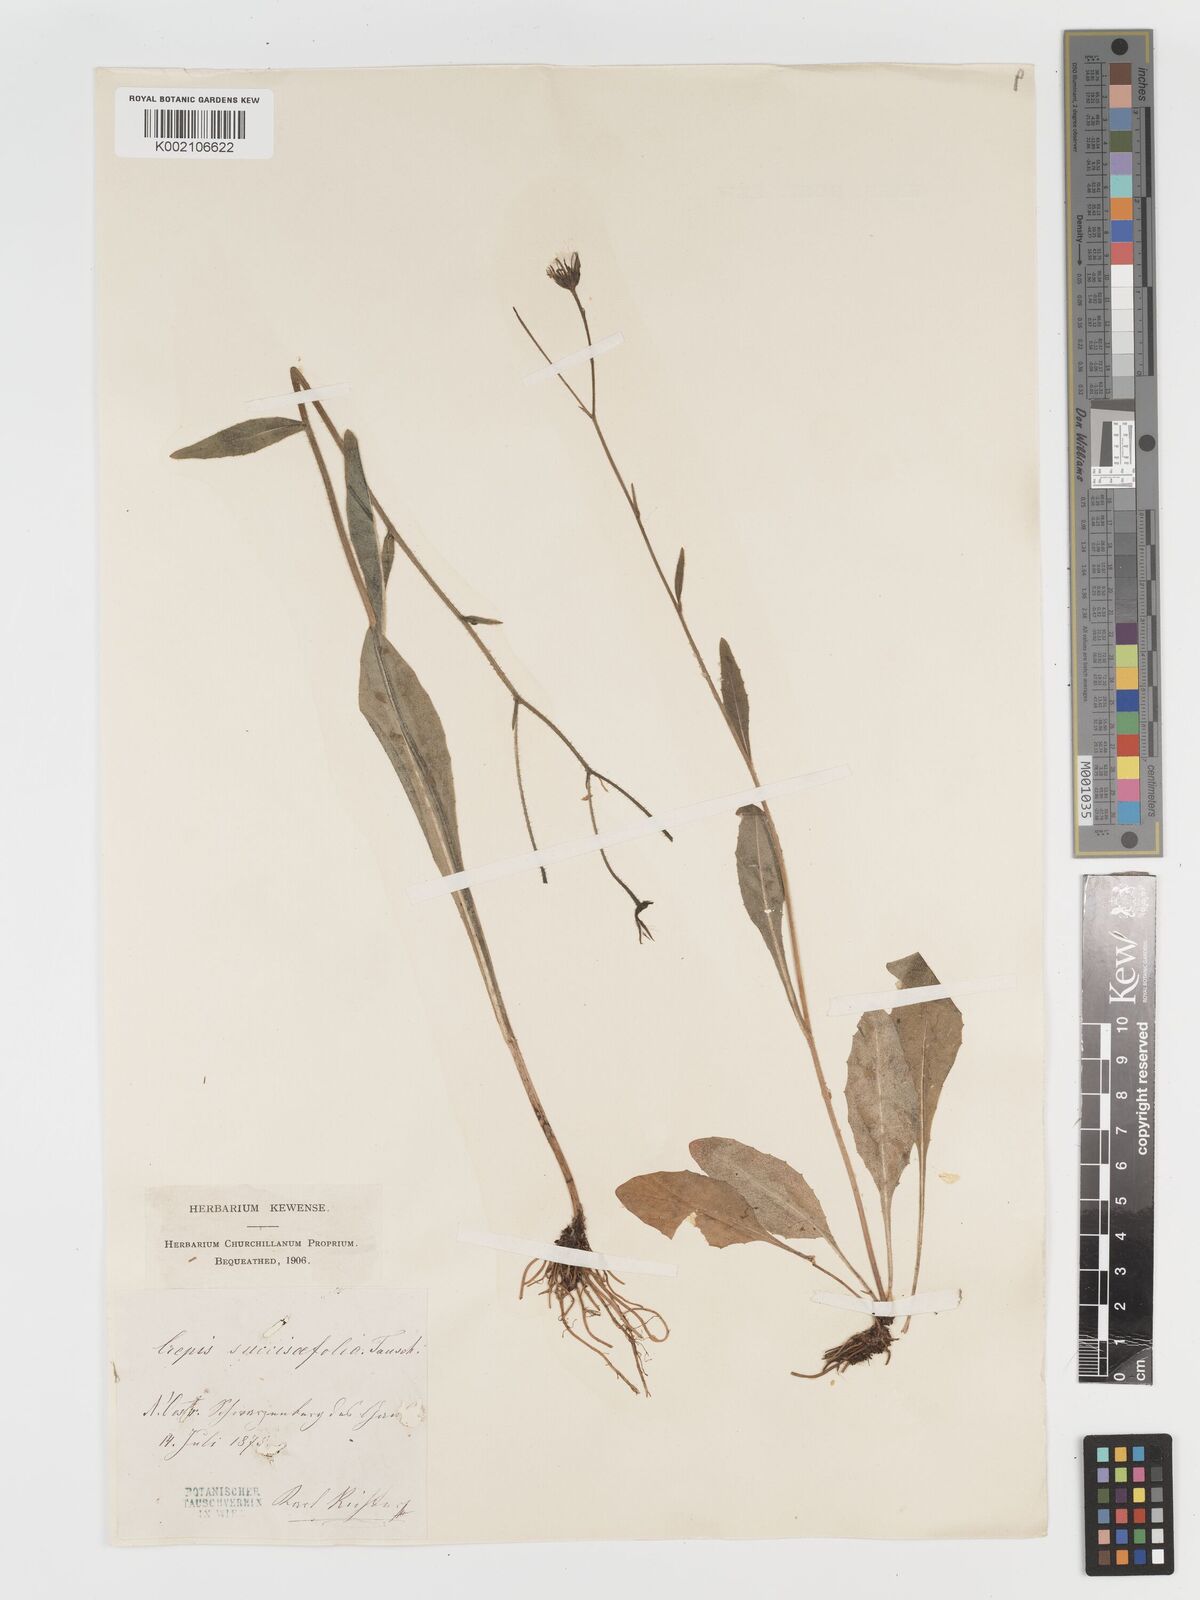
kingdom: Plantae
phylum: Tracheophyta
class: Magnoliopsida
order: Asterales
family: Asteraceae
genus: Crepis
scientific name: Crepis mollis
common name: Northern hawk's-beard
